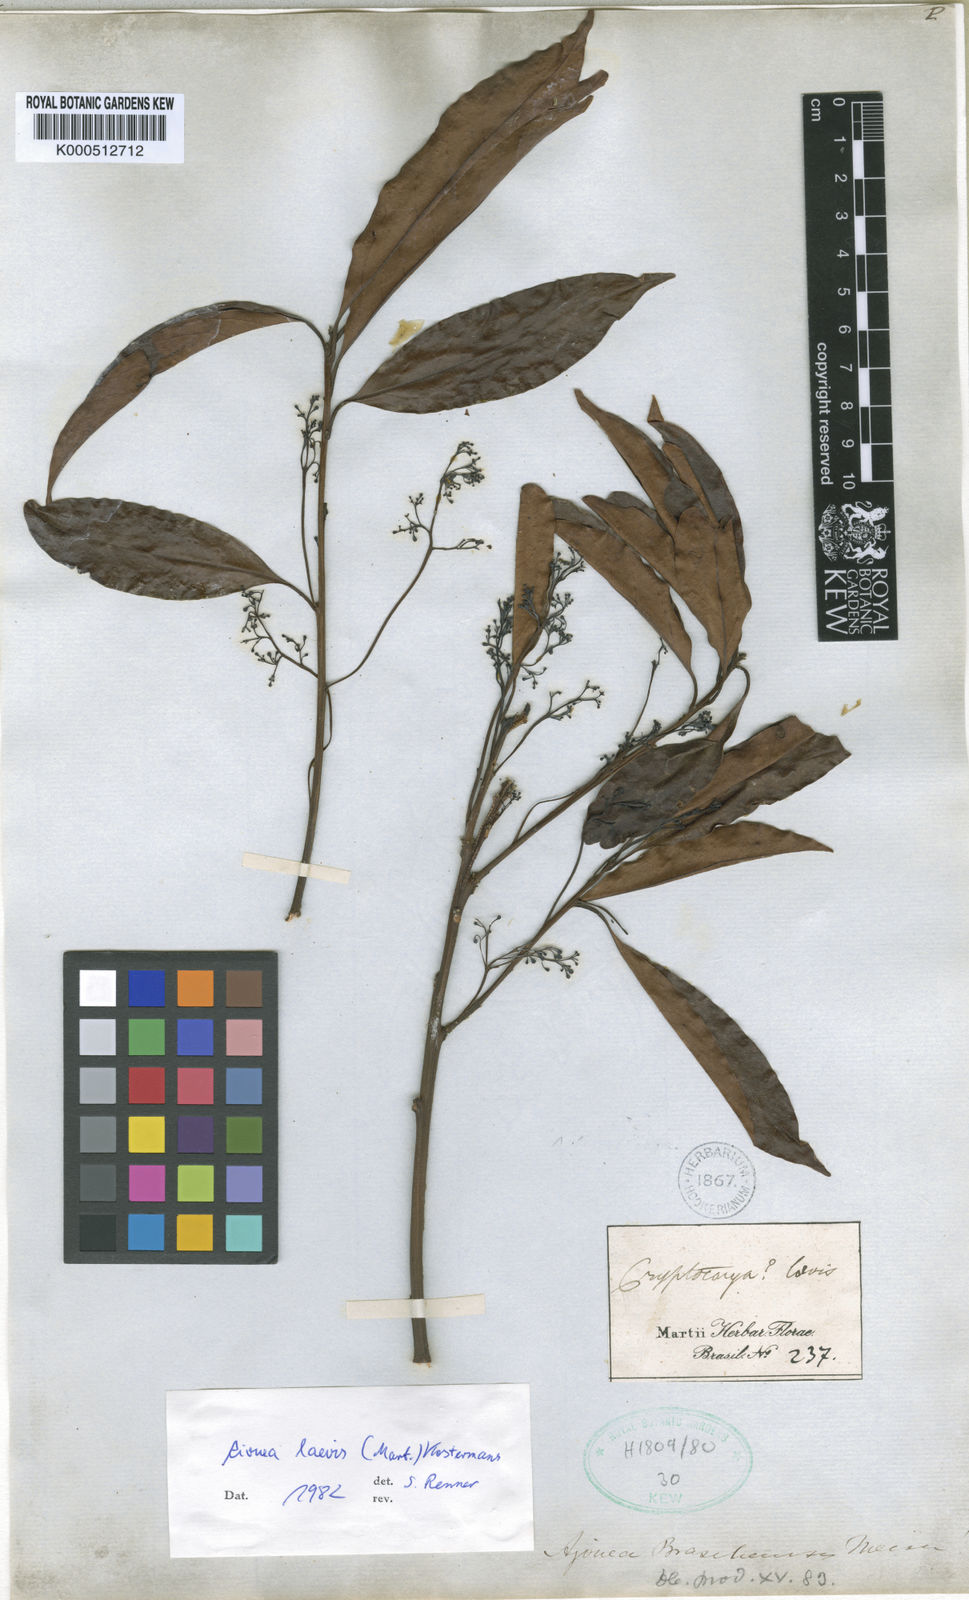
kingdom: Plantae
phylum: Tracheophyta
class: Magnoliopsida
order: Laurales
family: Lauraceae
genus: Aiouea
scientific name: Aiouea laevis
